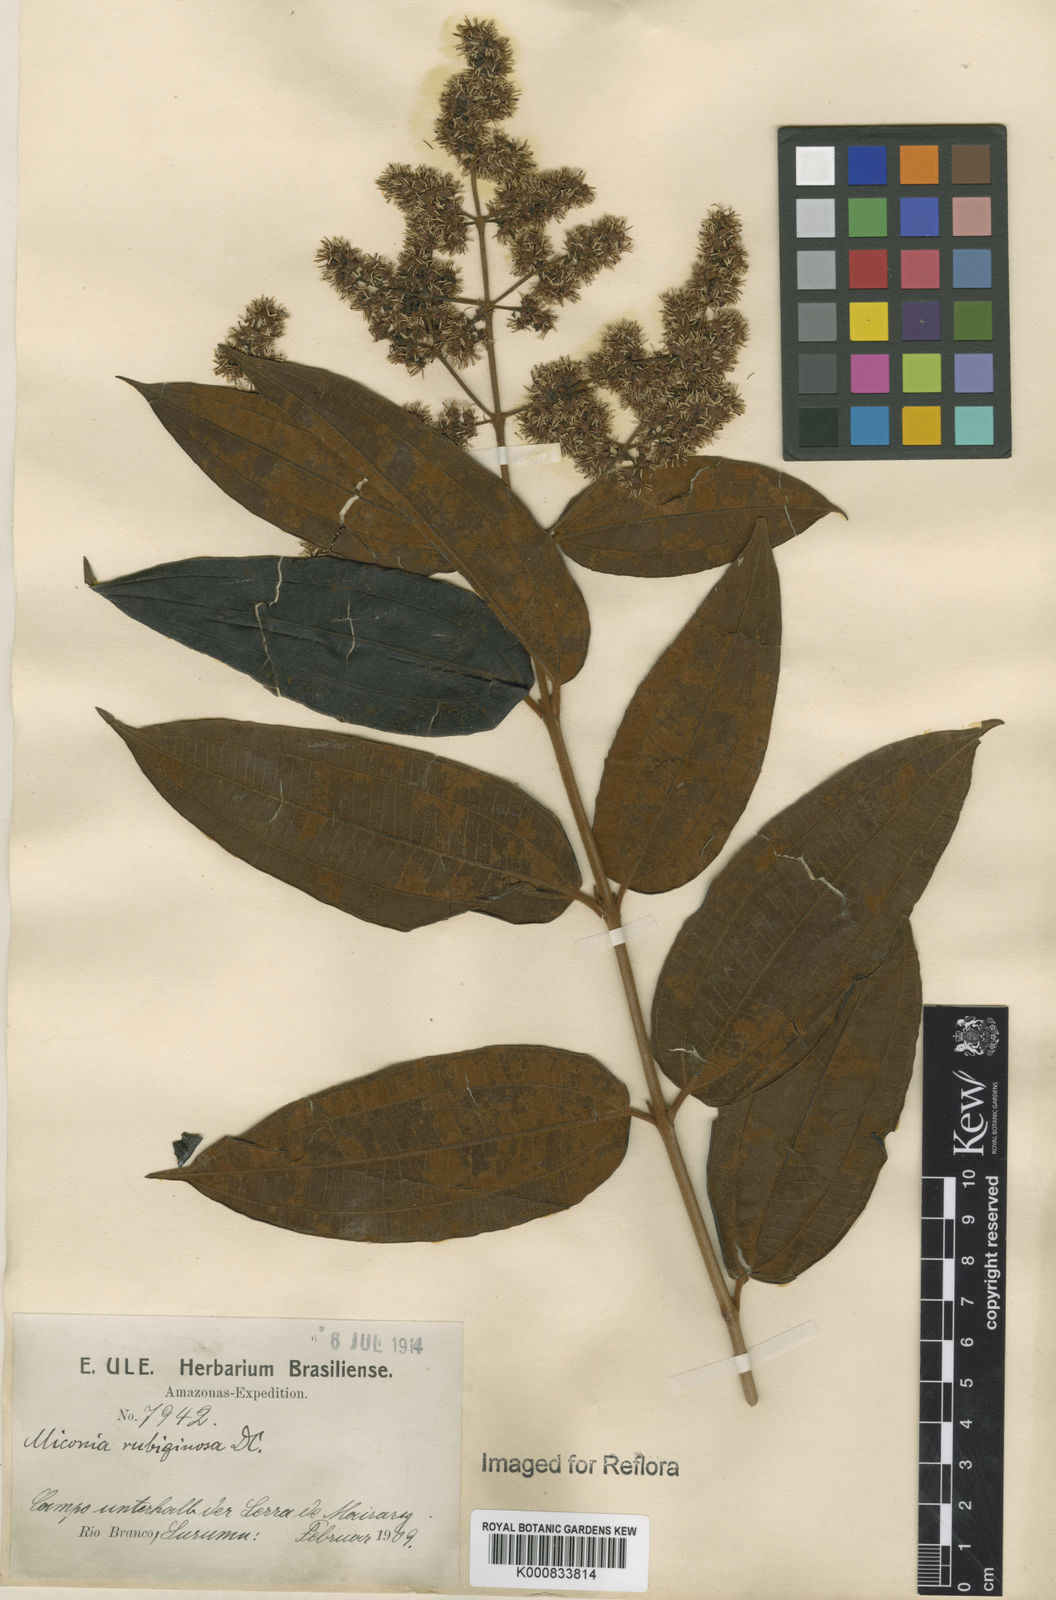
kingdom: Plantae
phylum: Tracheophyta
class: Magnoliopsida
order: Myrtales
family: Melastomataceae
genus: Miconia
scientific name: Miconia rubiginosa
